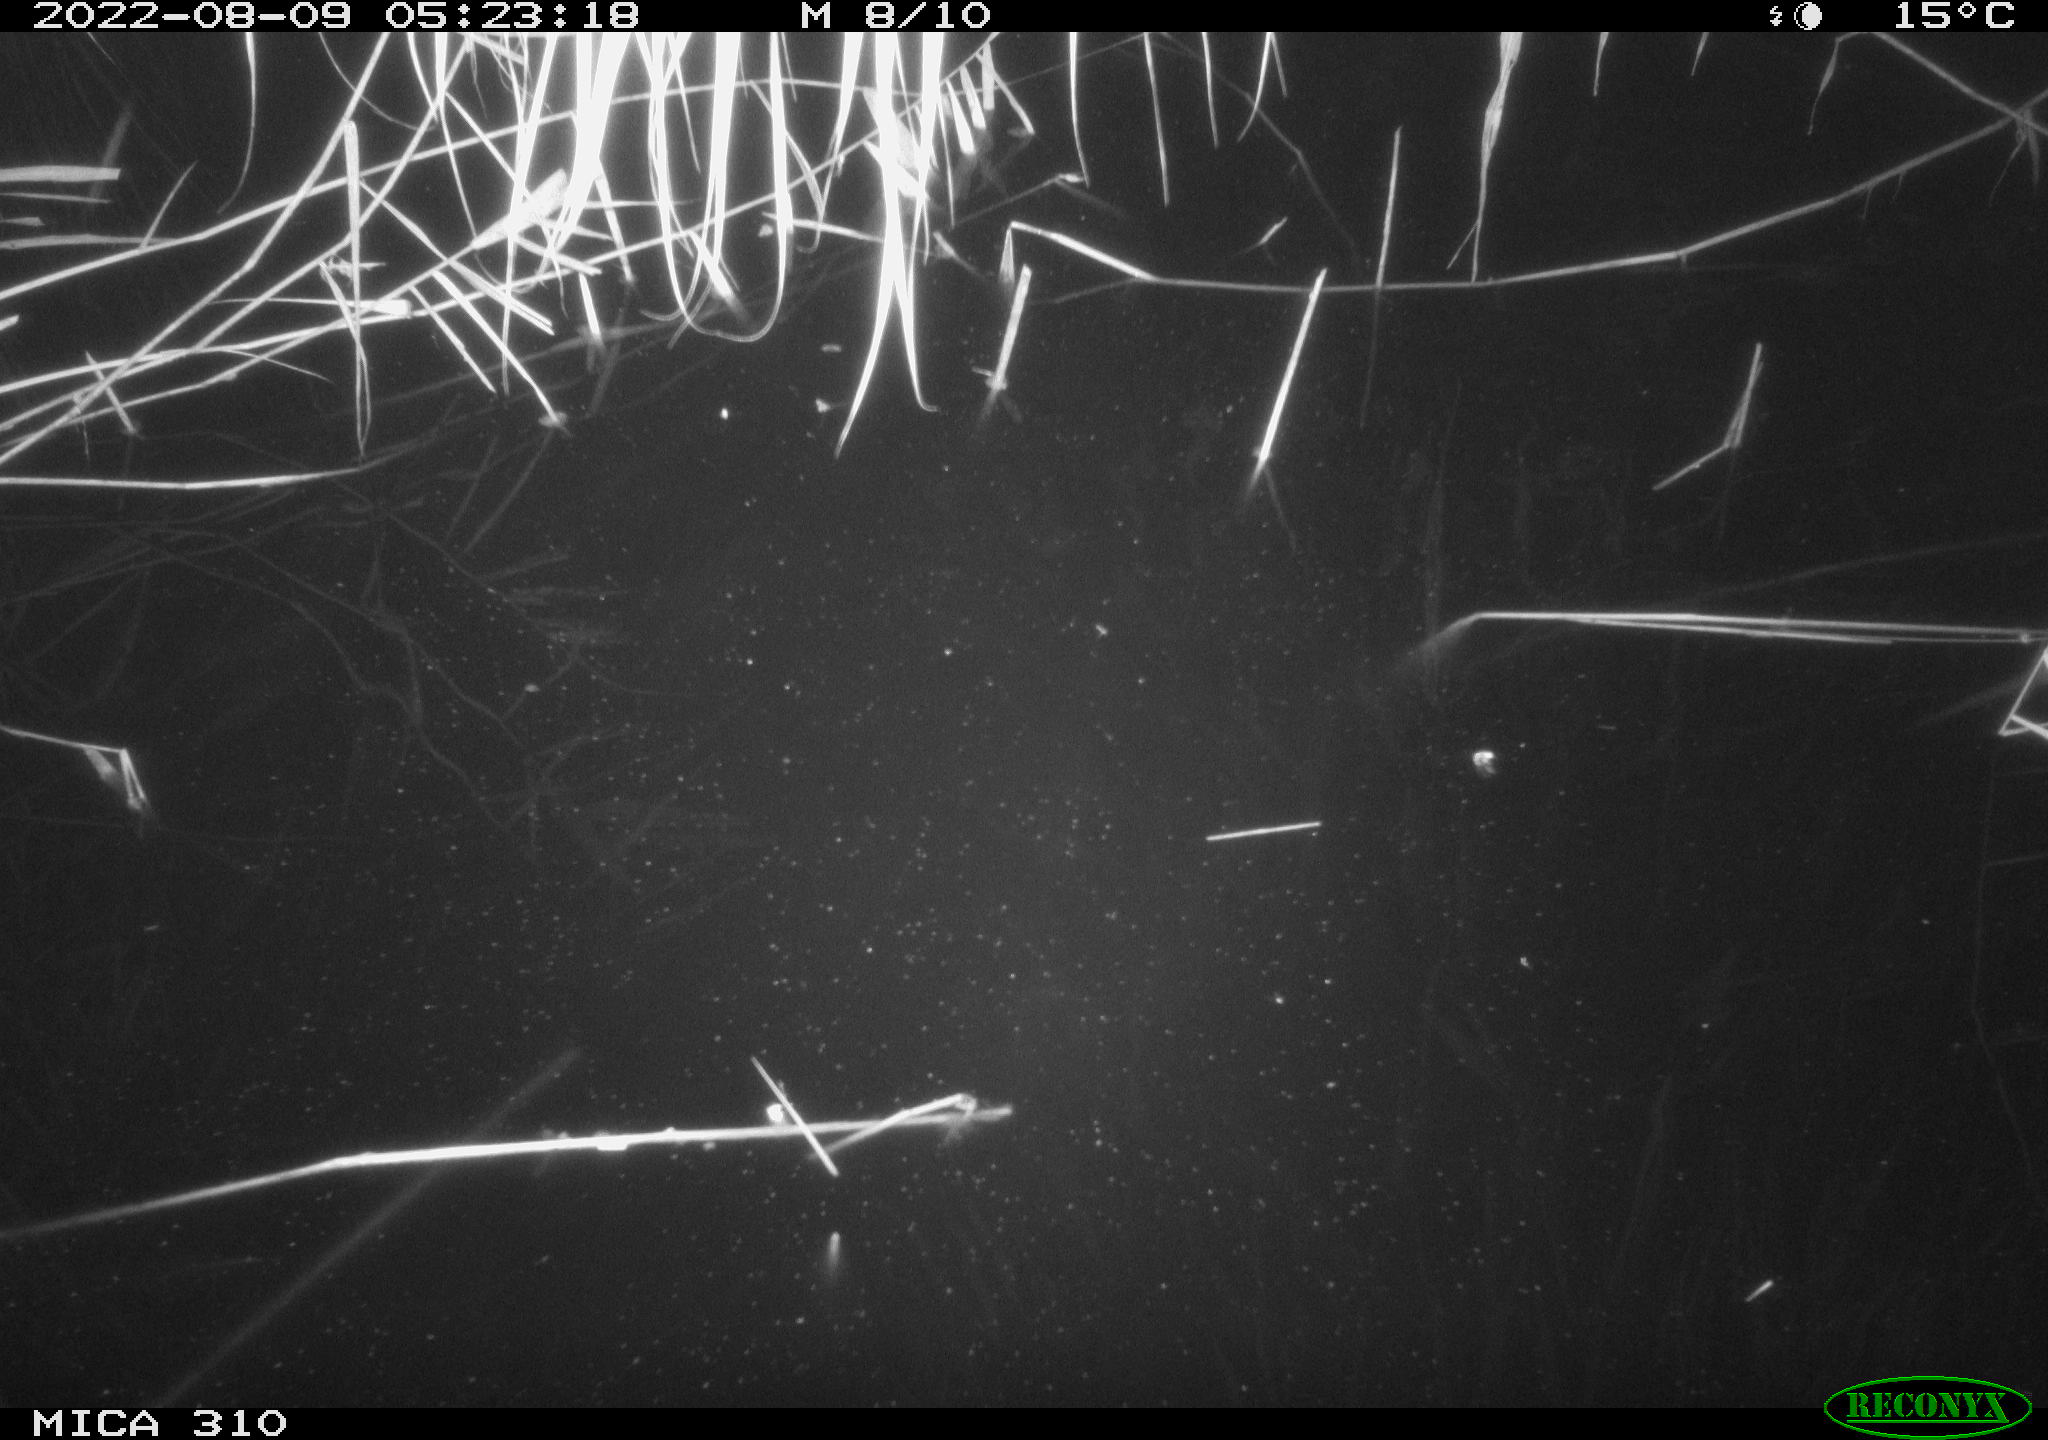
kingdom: Animalia
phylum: Chordata
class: Aves
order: Anseriformes
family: Anatidae
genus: Anas
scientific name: Anas platyrhynchos
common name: Mallard
